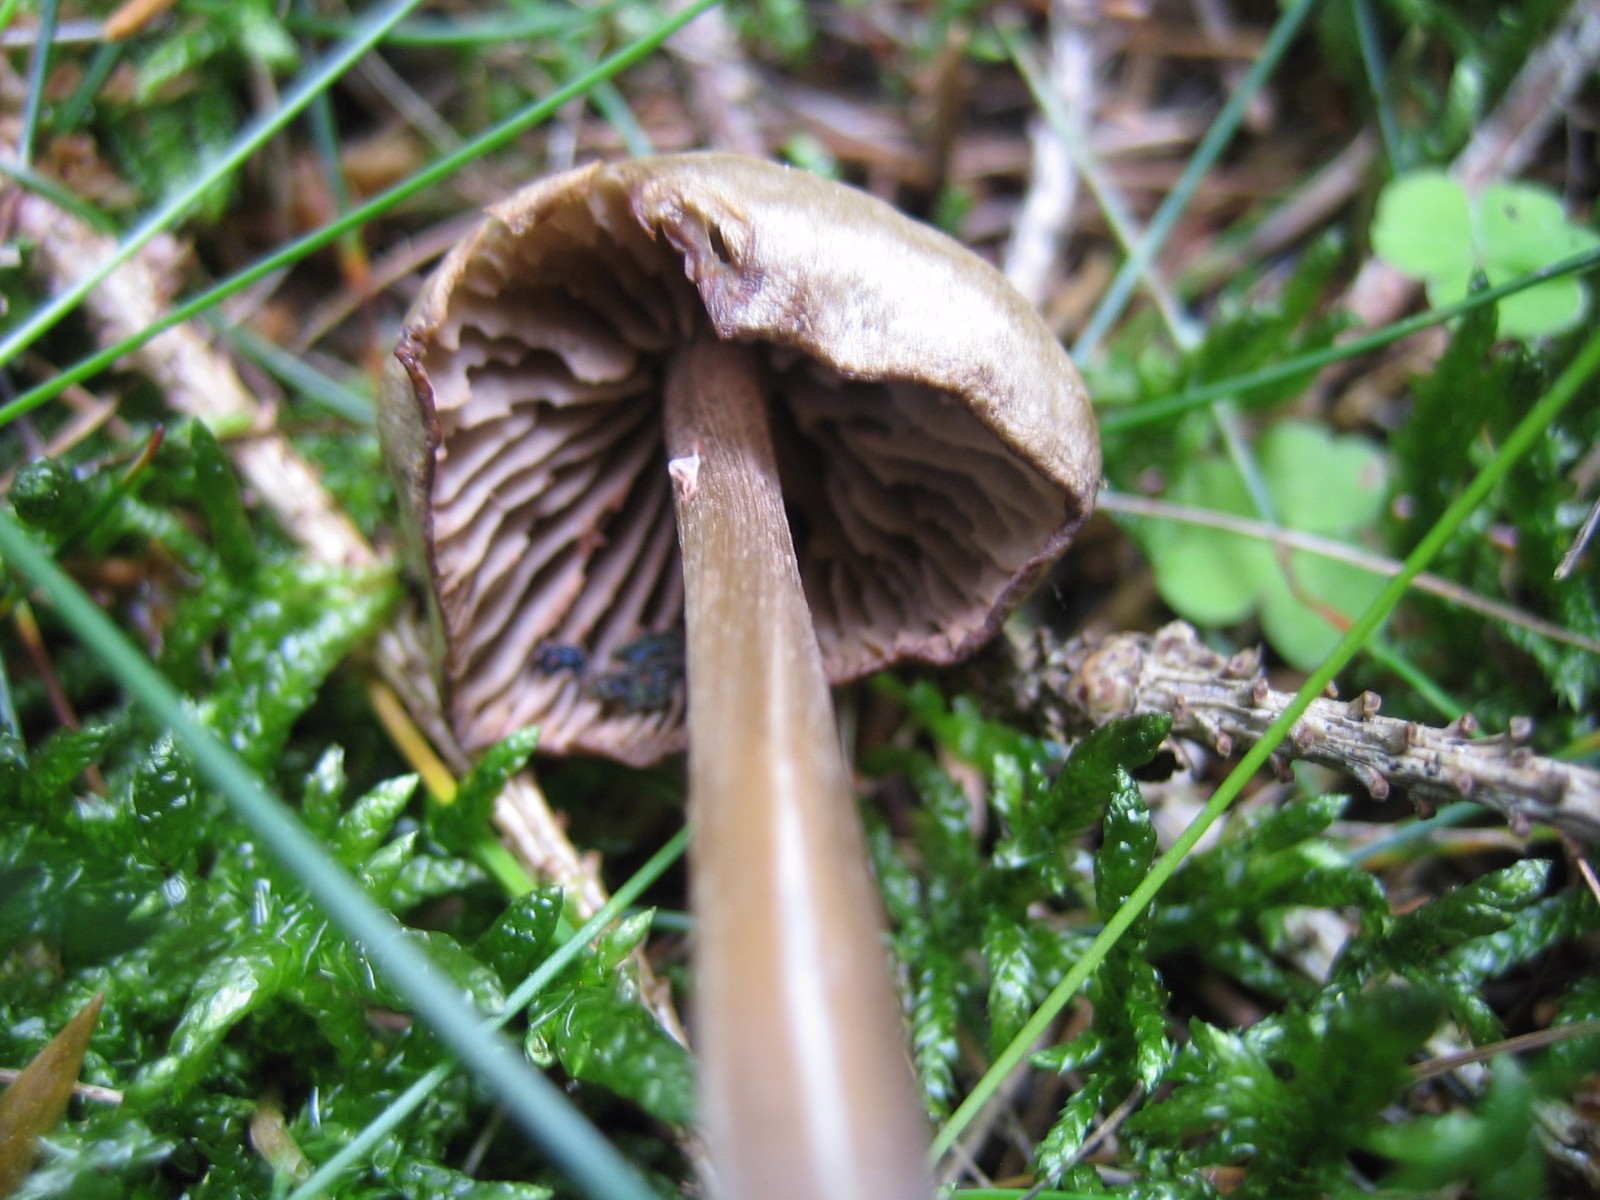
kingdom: Fungi
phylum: Basidiomycota
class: Agaricomycetes
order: Agaricales
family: Entolomataceae
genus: Entoloma
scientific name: Entoloma
